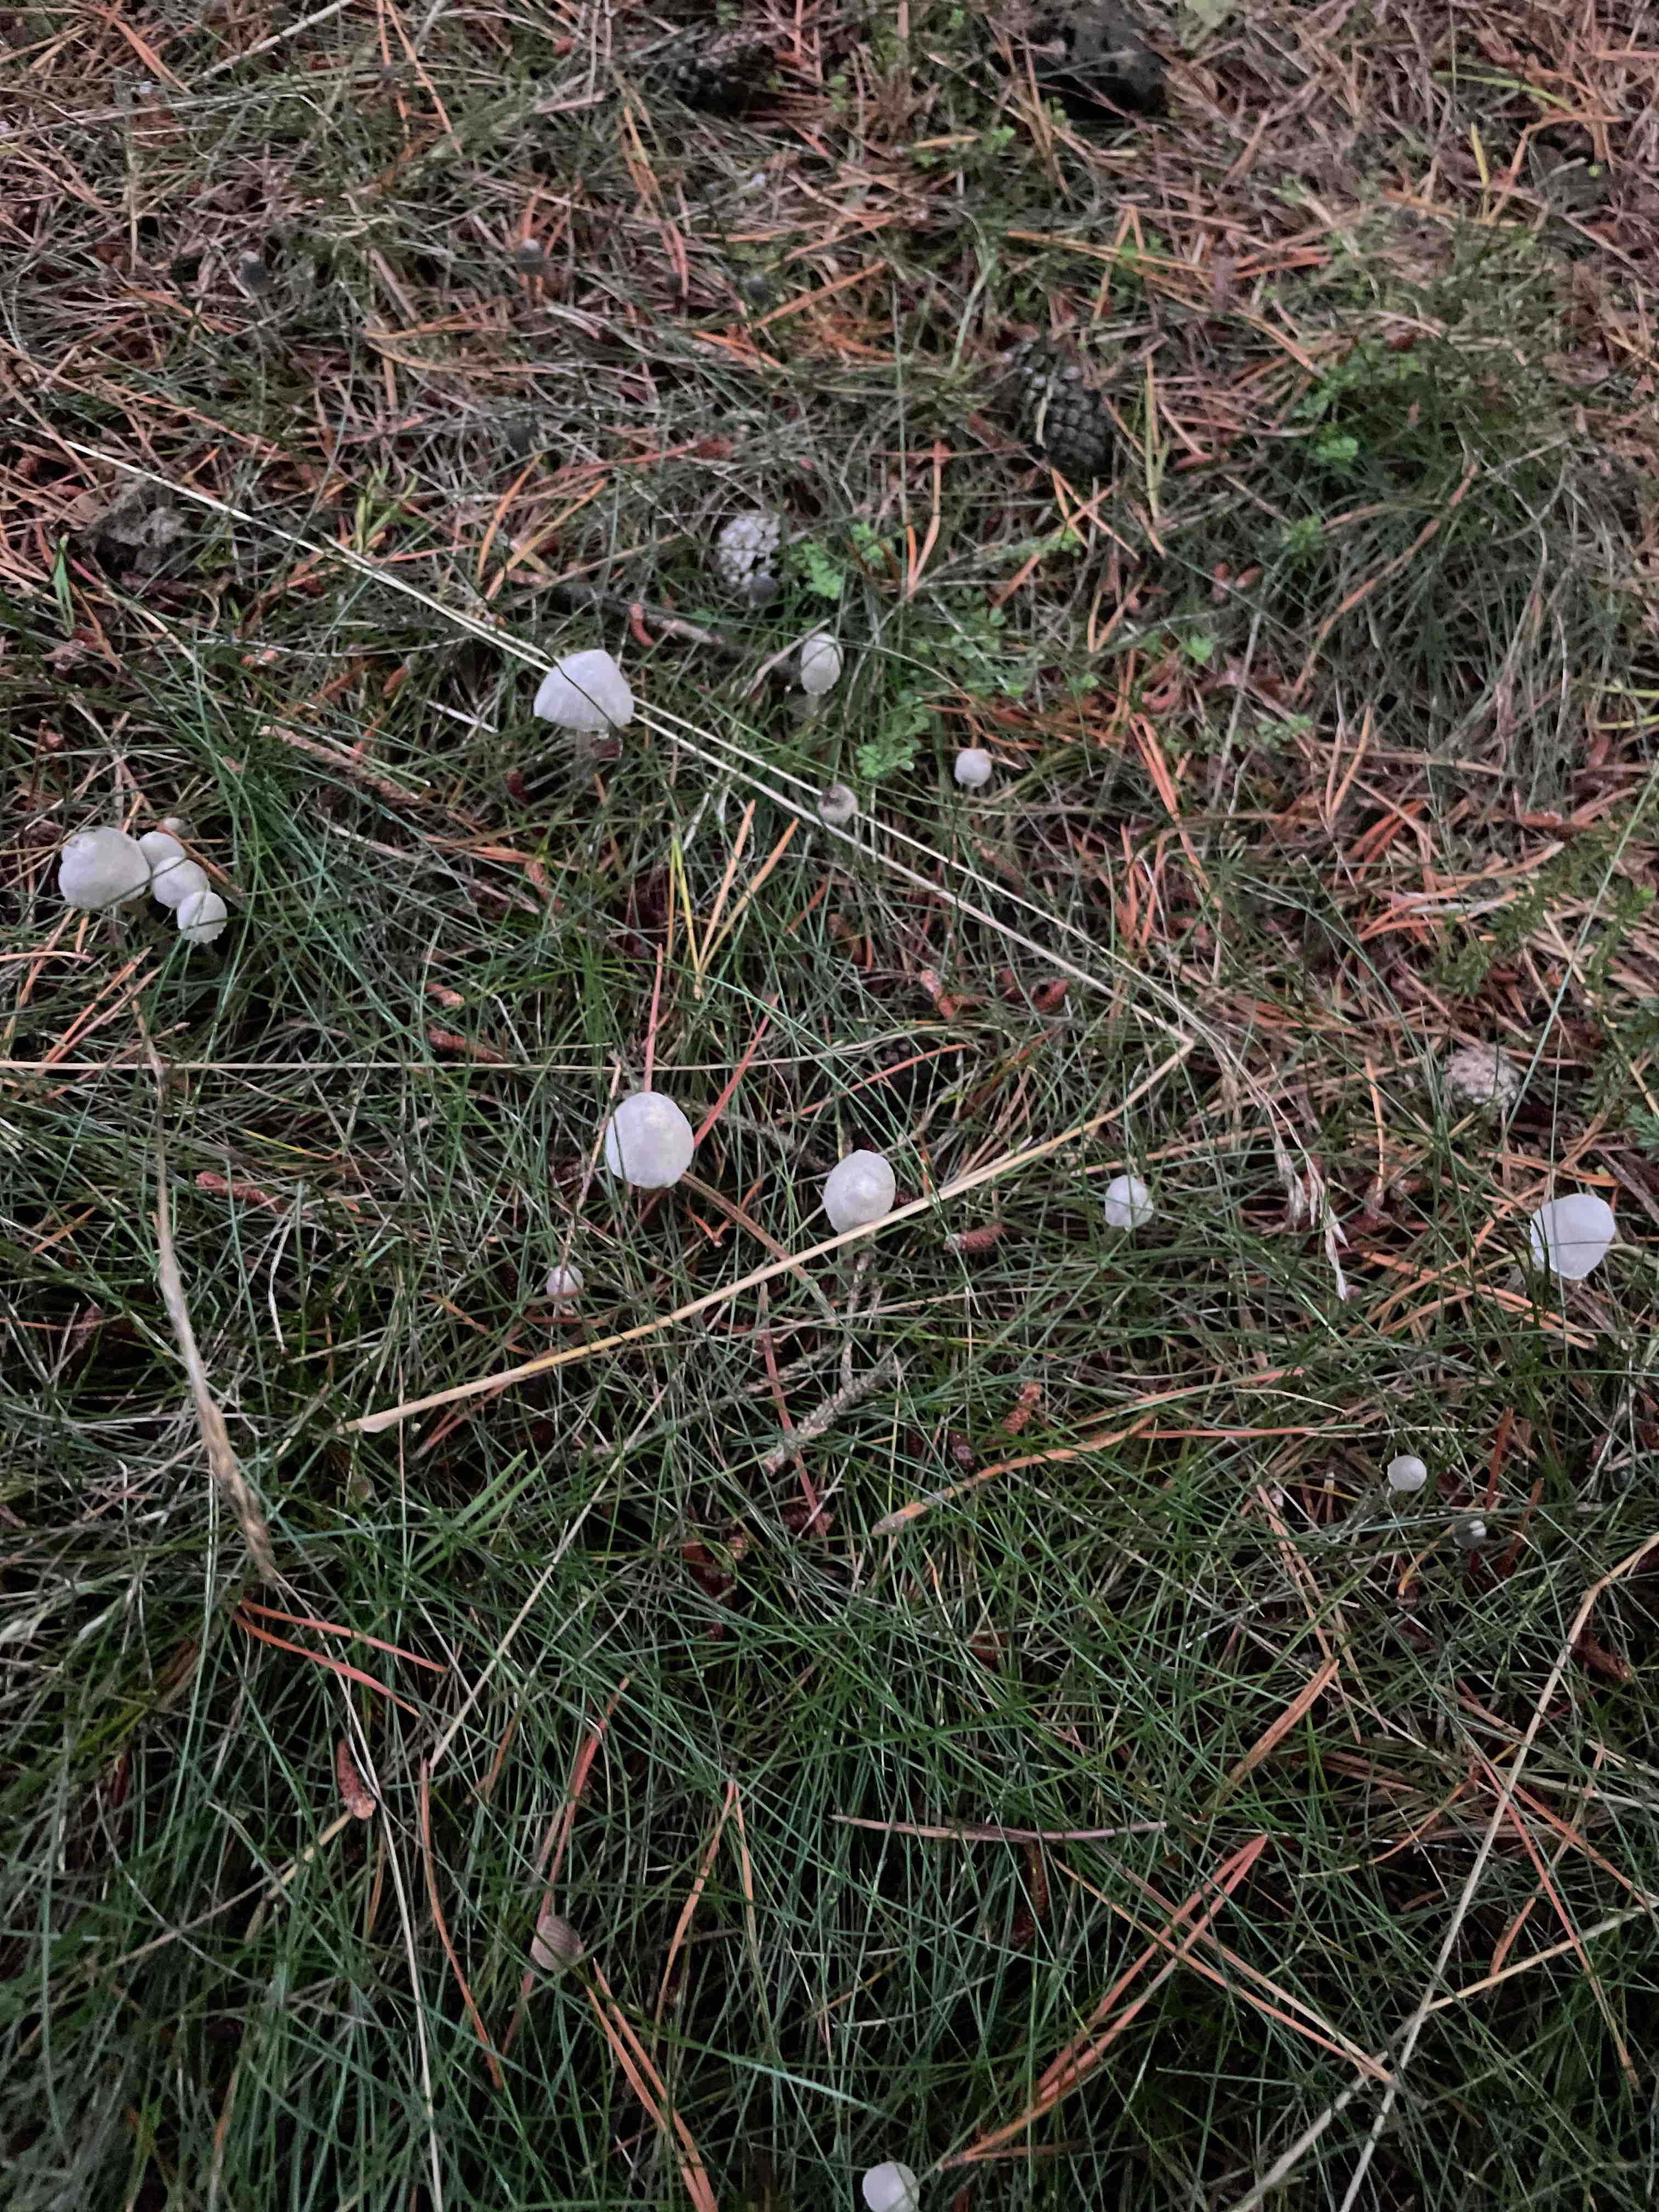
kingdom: Fungi
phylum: Basidiomycota
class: Agaricomycetes
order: Agaricales
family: Mycenaceae
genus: Mycena
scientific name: Mycena
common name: huesvamp
